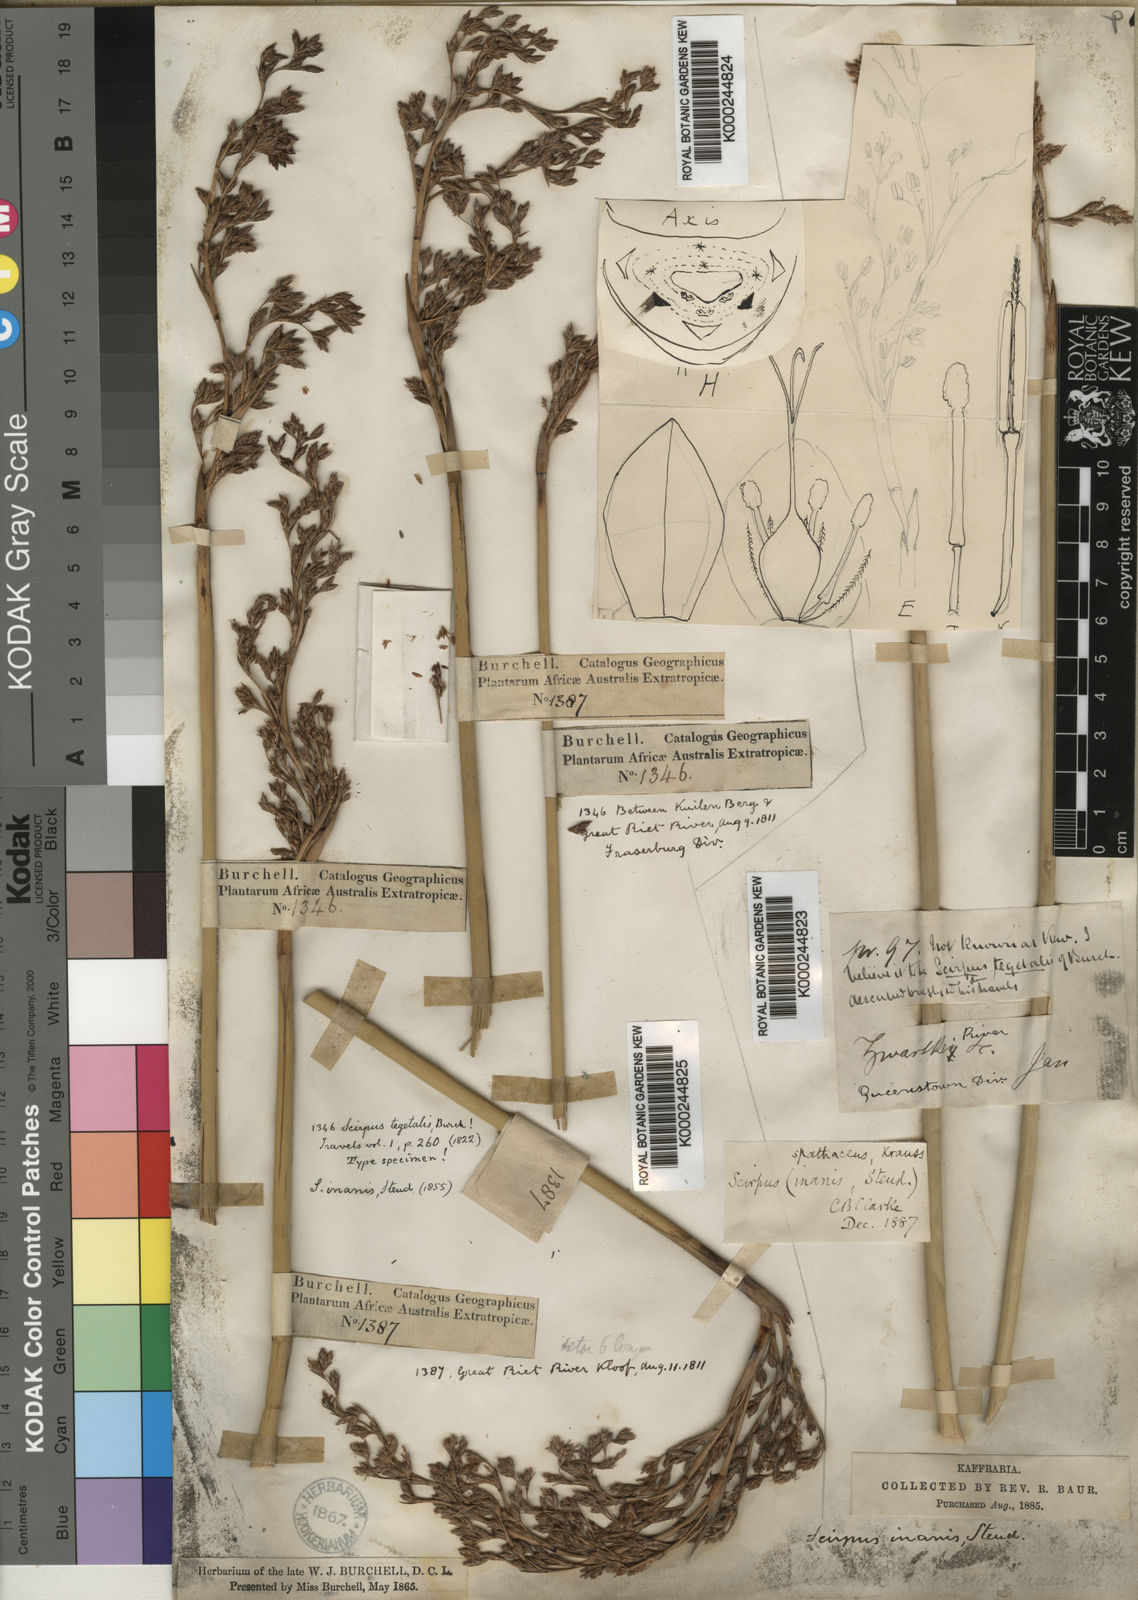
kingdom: Plantae
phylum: Tracheophyta
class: Liliopsida
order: Poales
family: Cyperaceae
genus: Pseudoschoenus
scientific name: Pseudoschoenus inanis
